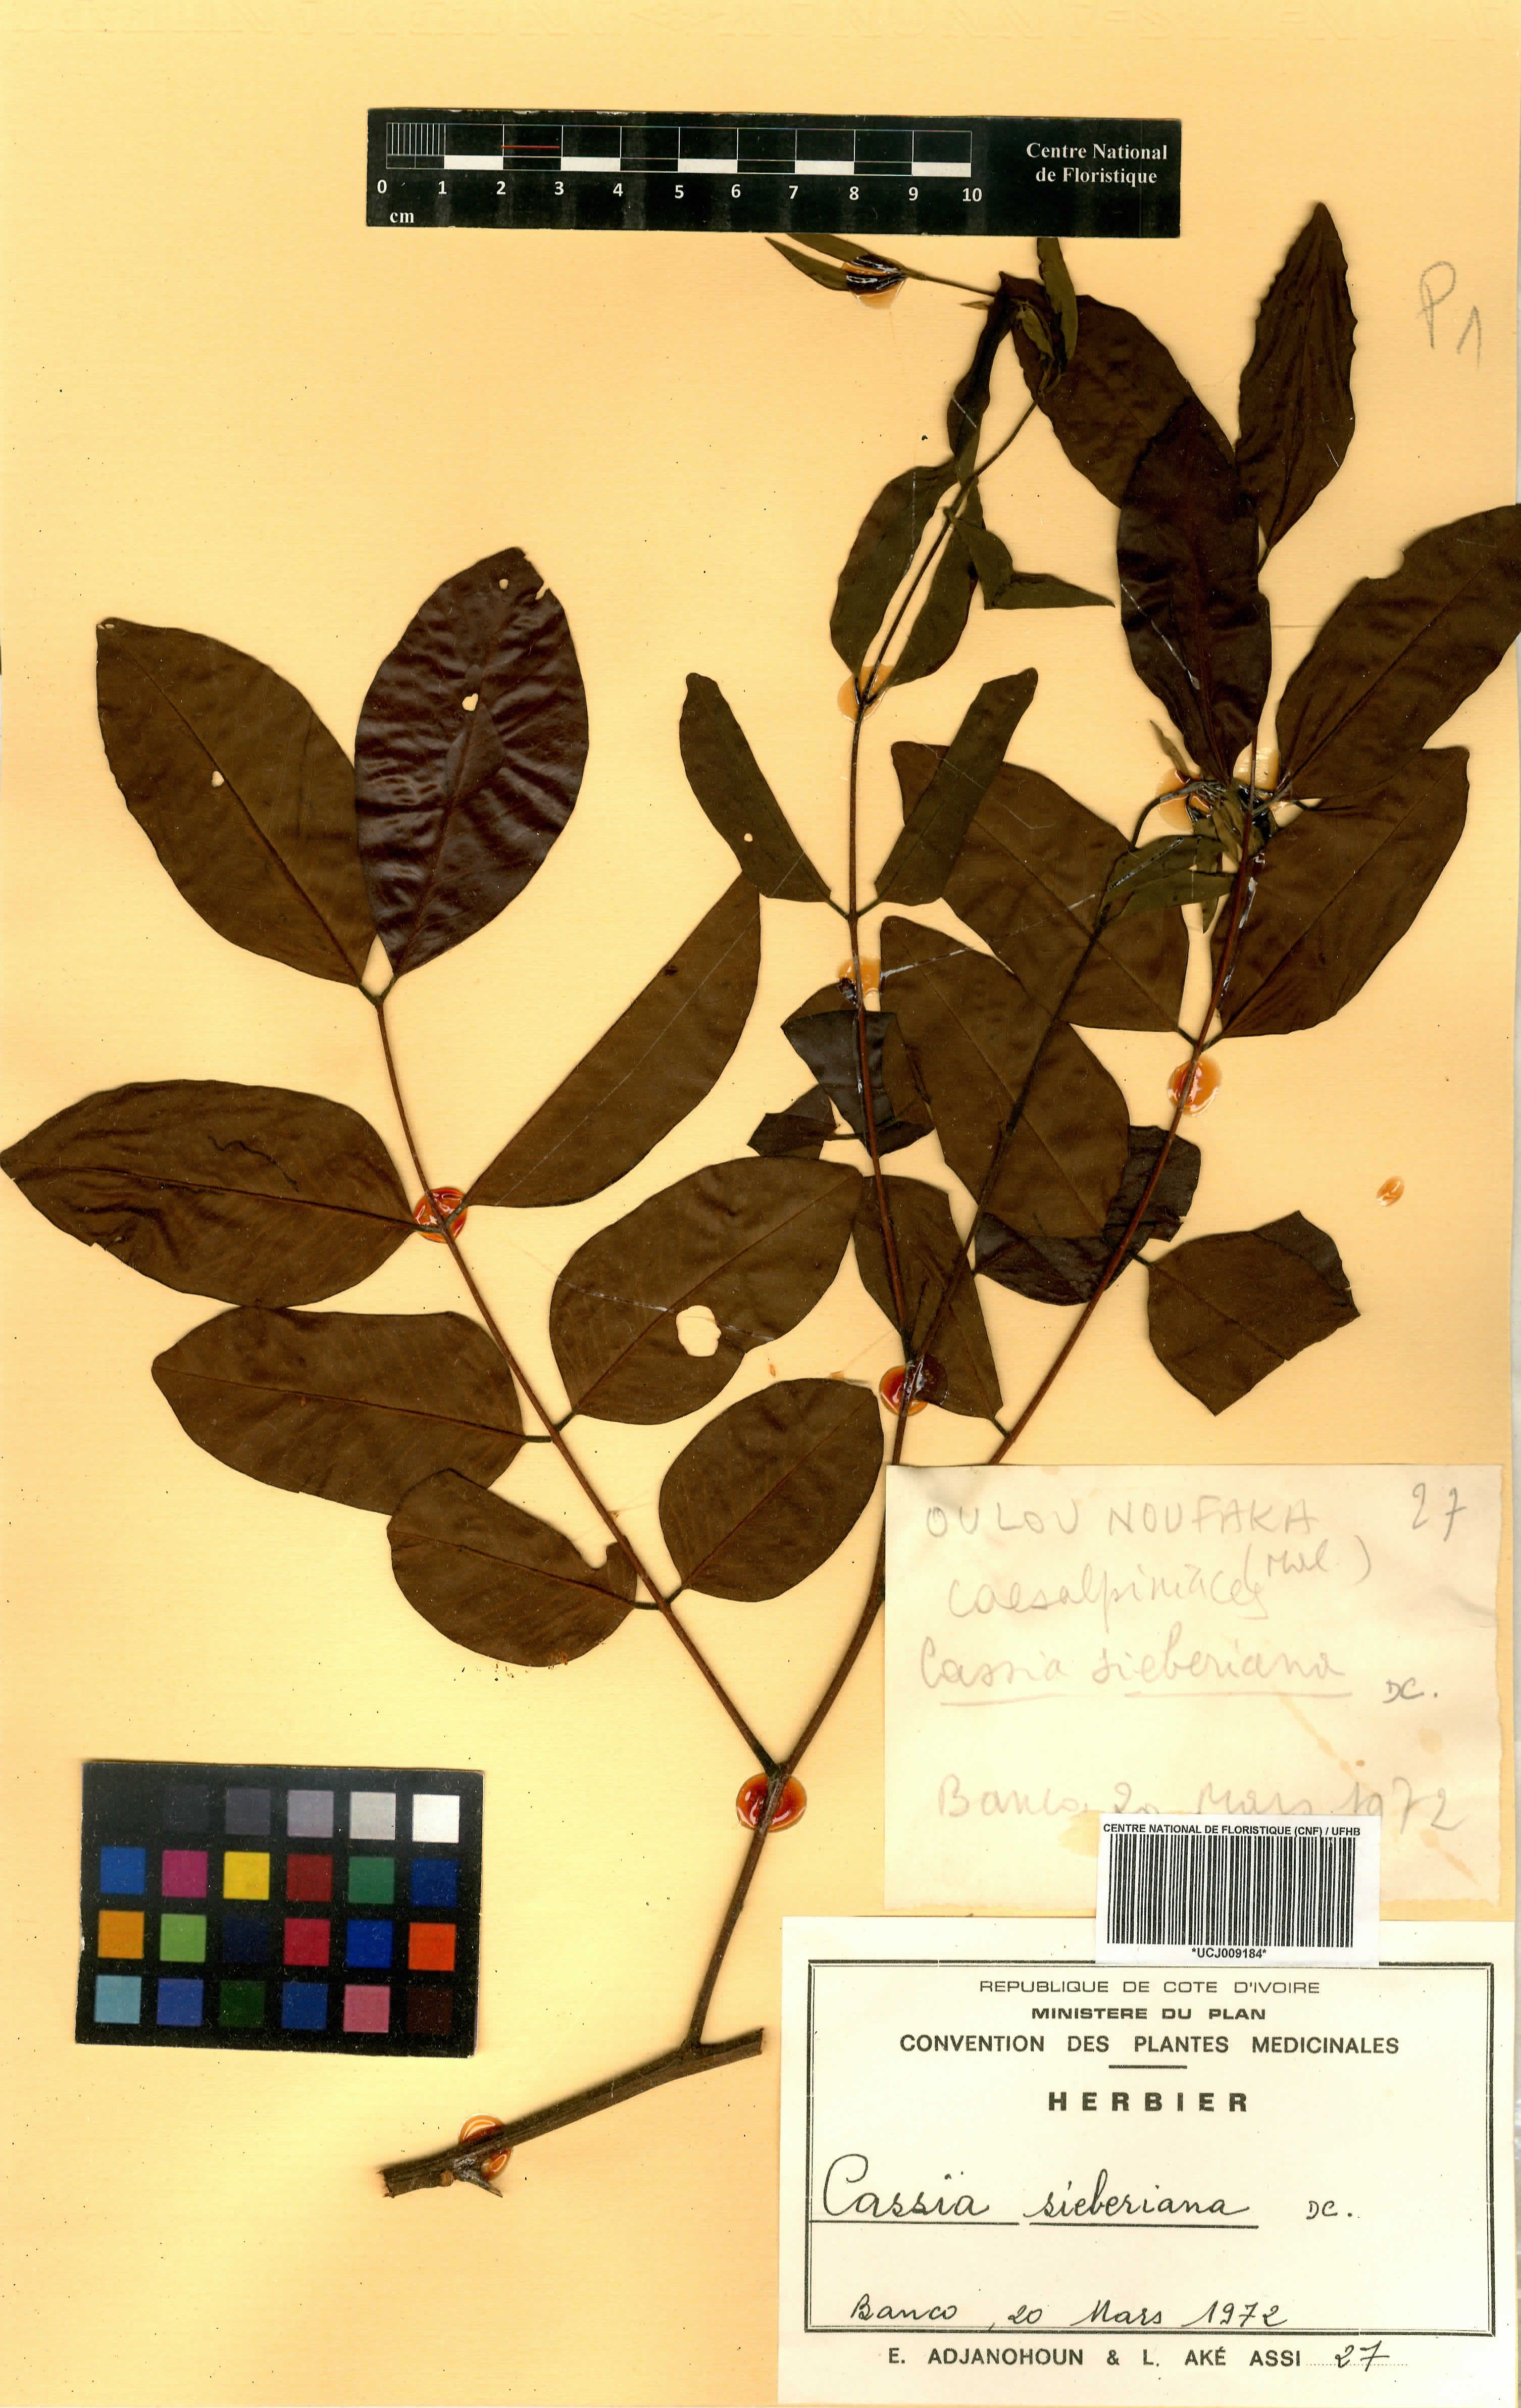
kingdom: Plantae
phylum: Tracheophyta
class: Magnoliopsida
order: Fabales
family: Fabaceae
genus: Cassia
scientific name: Cassia sieberiana
